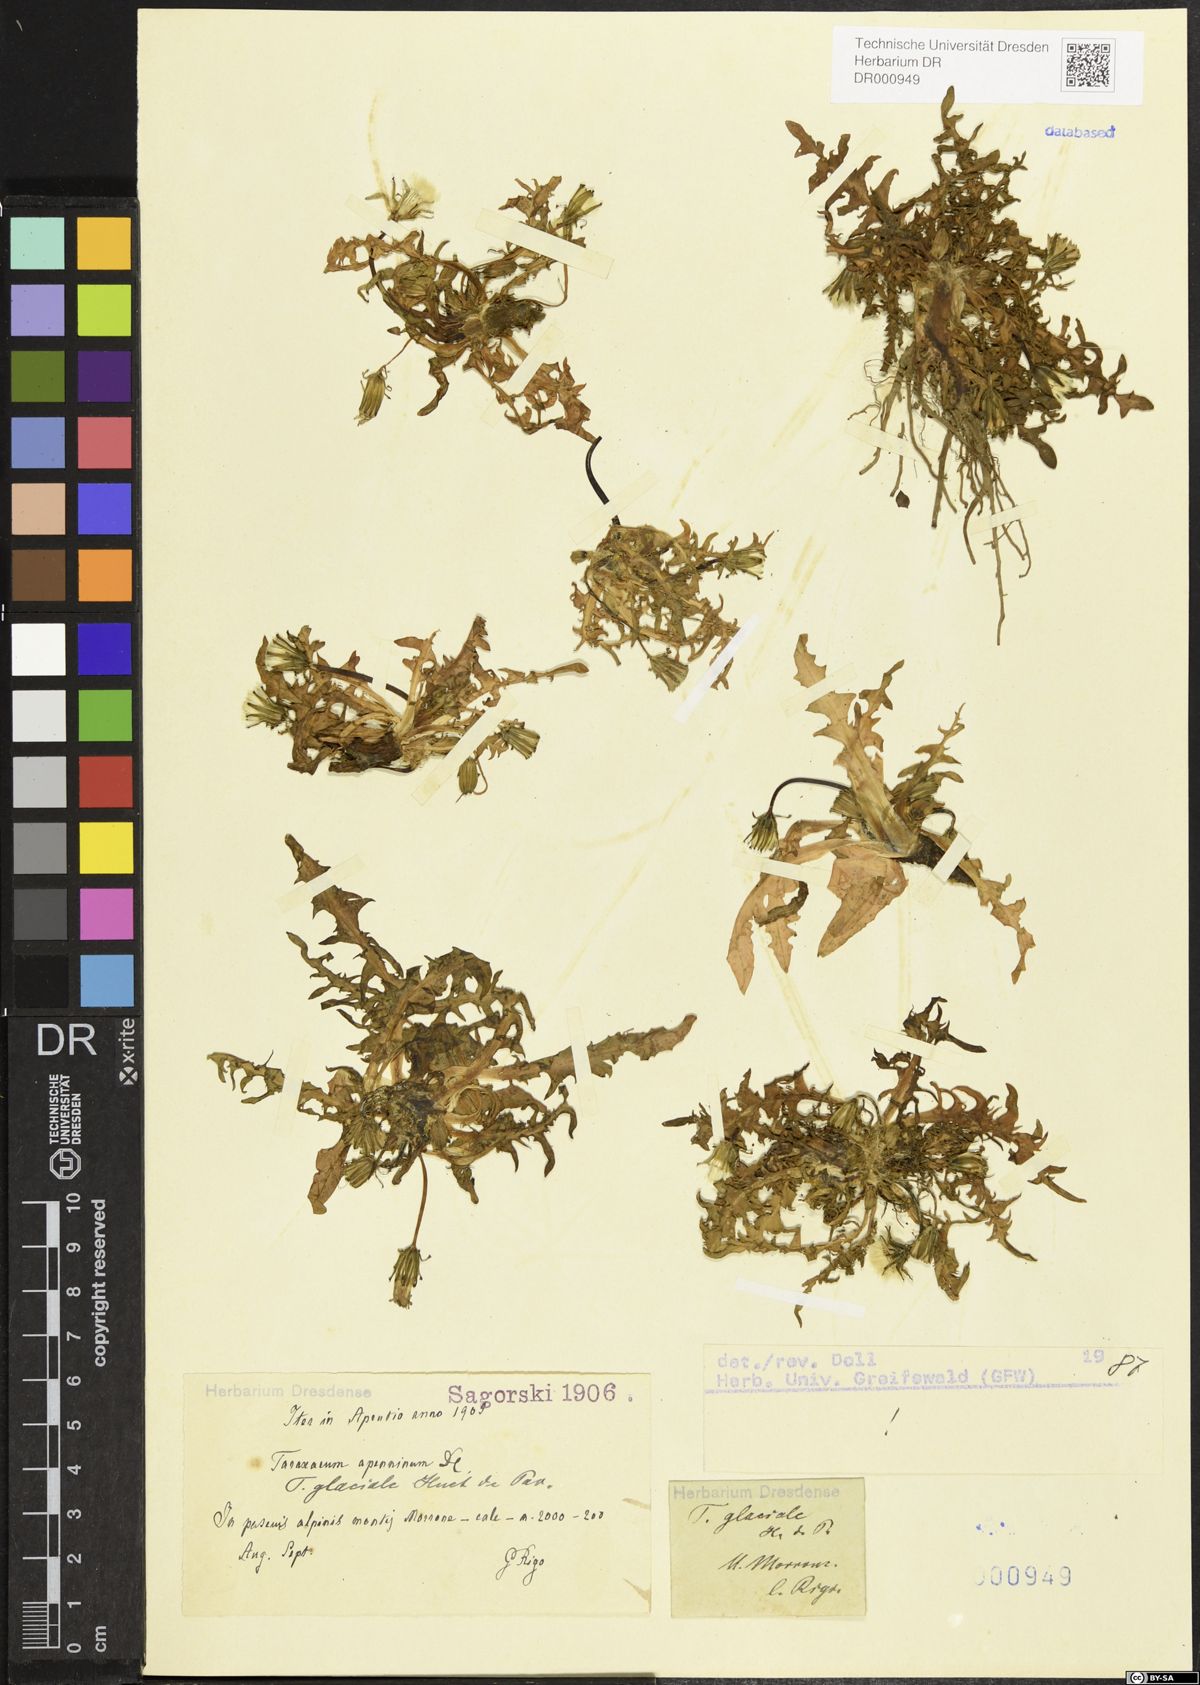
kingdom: Plantae
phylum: Tracheophyta
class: Magnoliopsida
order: Asterales
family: Asteraceae
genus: Taraxacum
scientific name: Taraxacum glaciale
